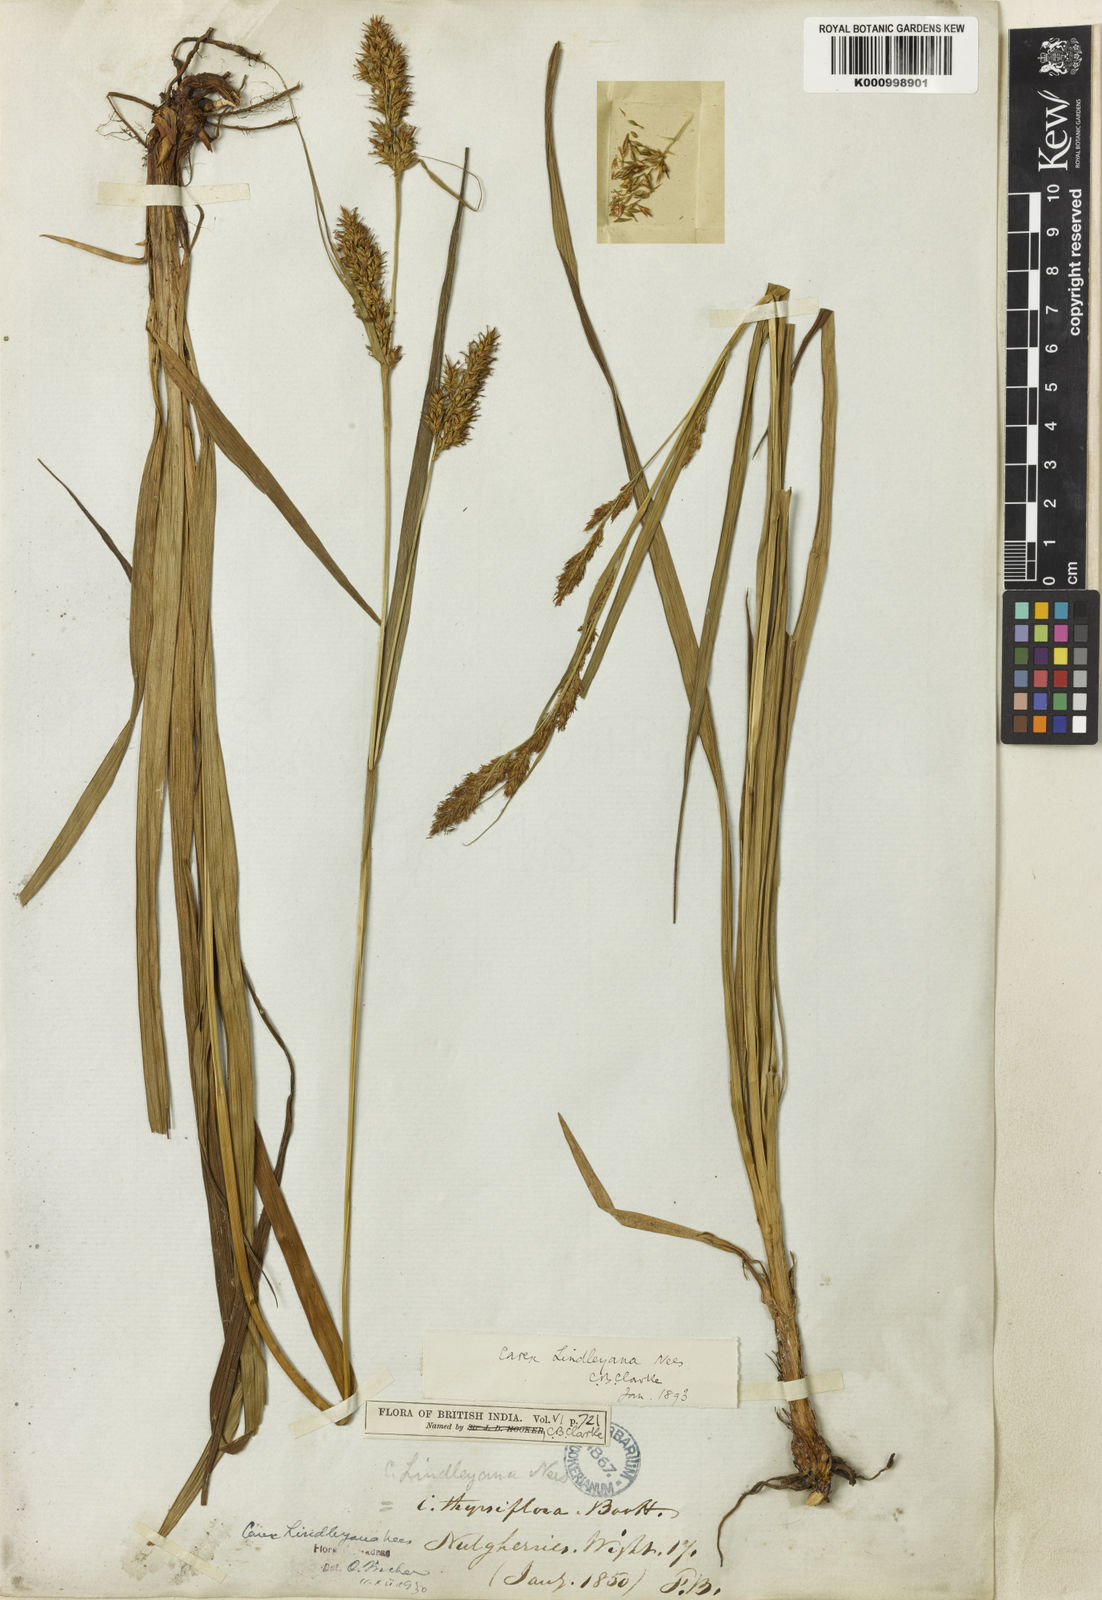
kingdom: Plantae
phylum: Tracheophyta
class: Liliopsida
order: Poales
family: Cyperaceae
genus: Carex
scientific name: Carex lindleyana
